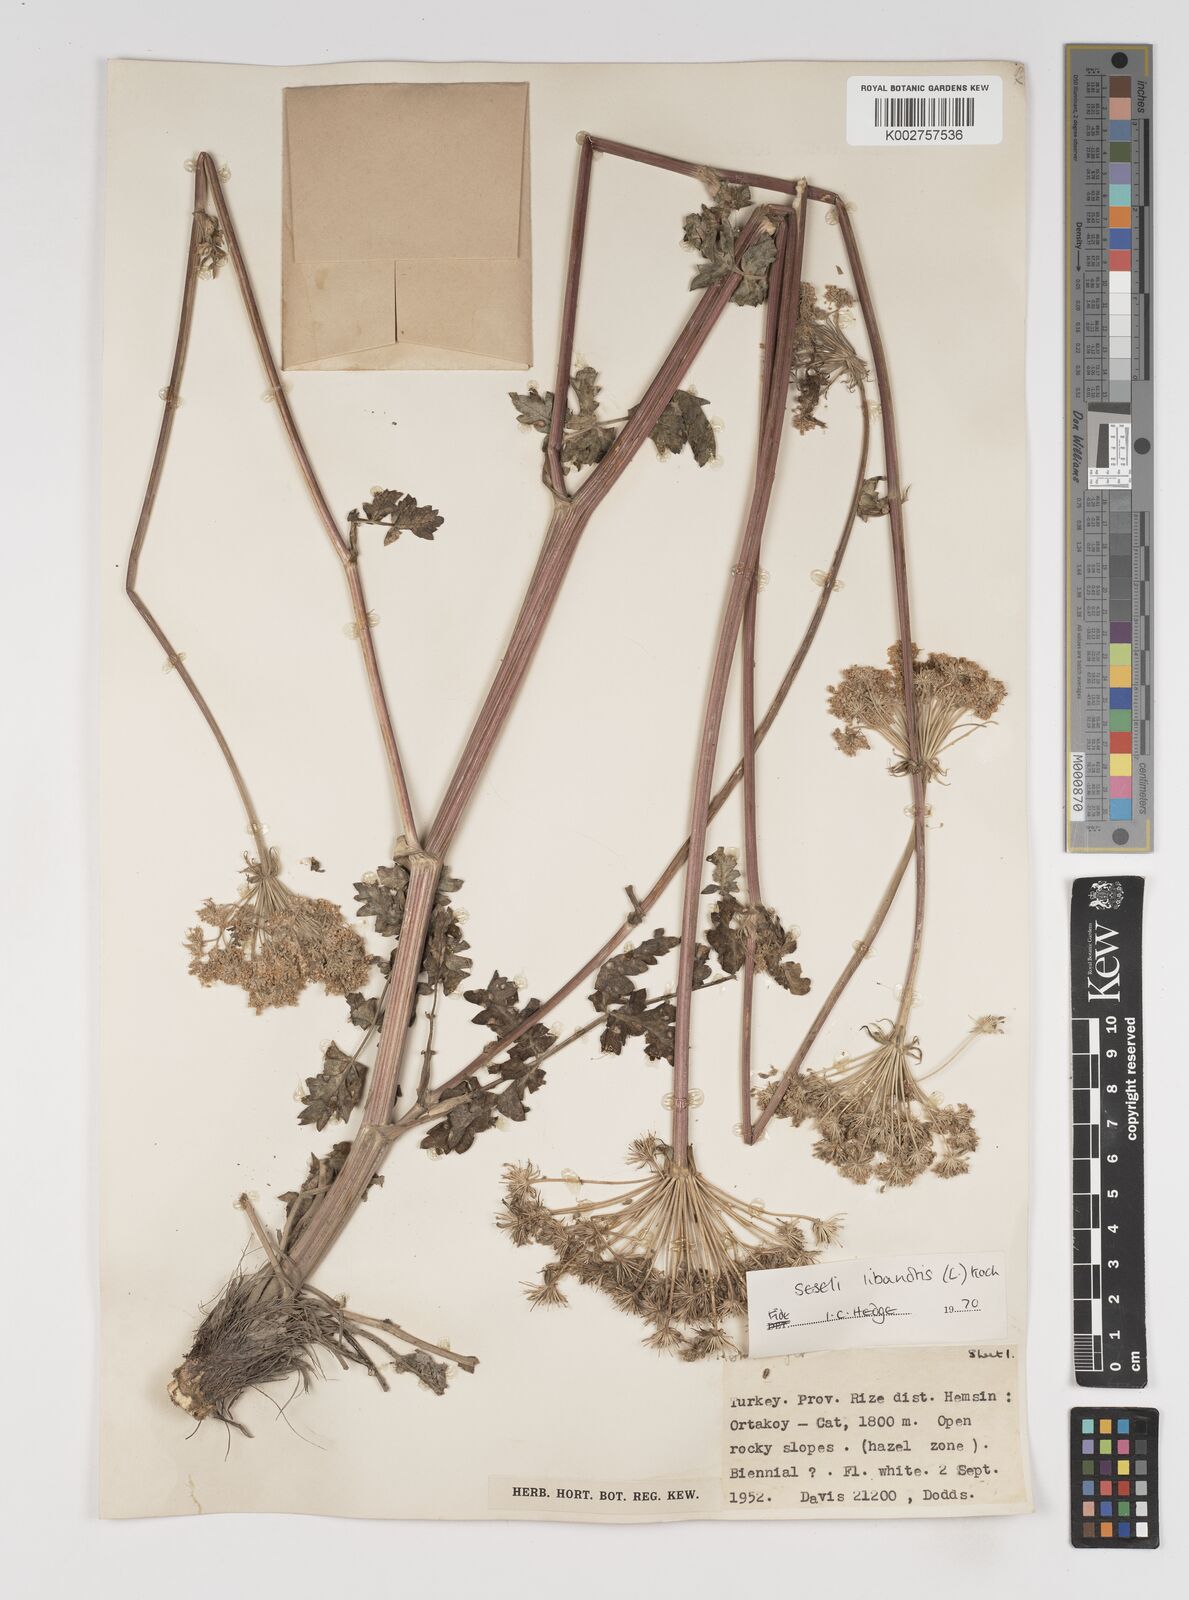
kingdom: Plantae
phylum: Tracheophyta
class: Magnoliopsida
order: Apiales
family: Apiaceae
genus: Seseli
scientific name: Seseli libanotis
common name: Mooncarrot
